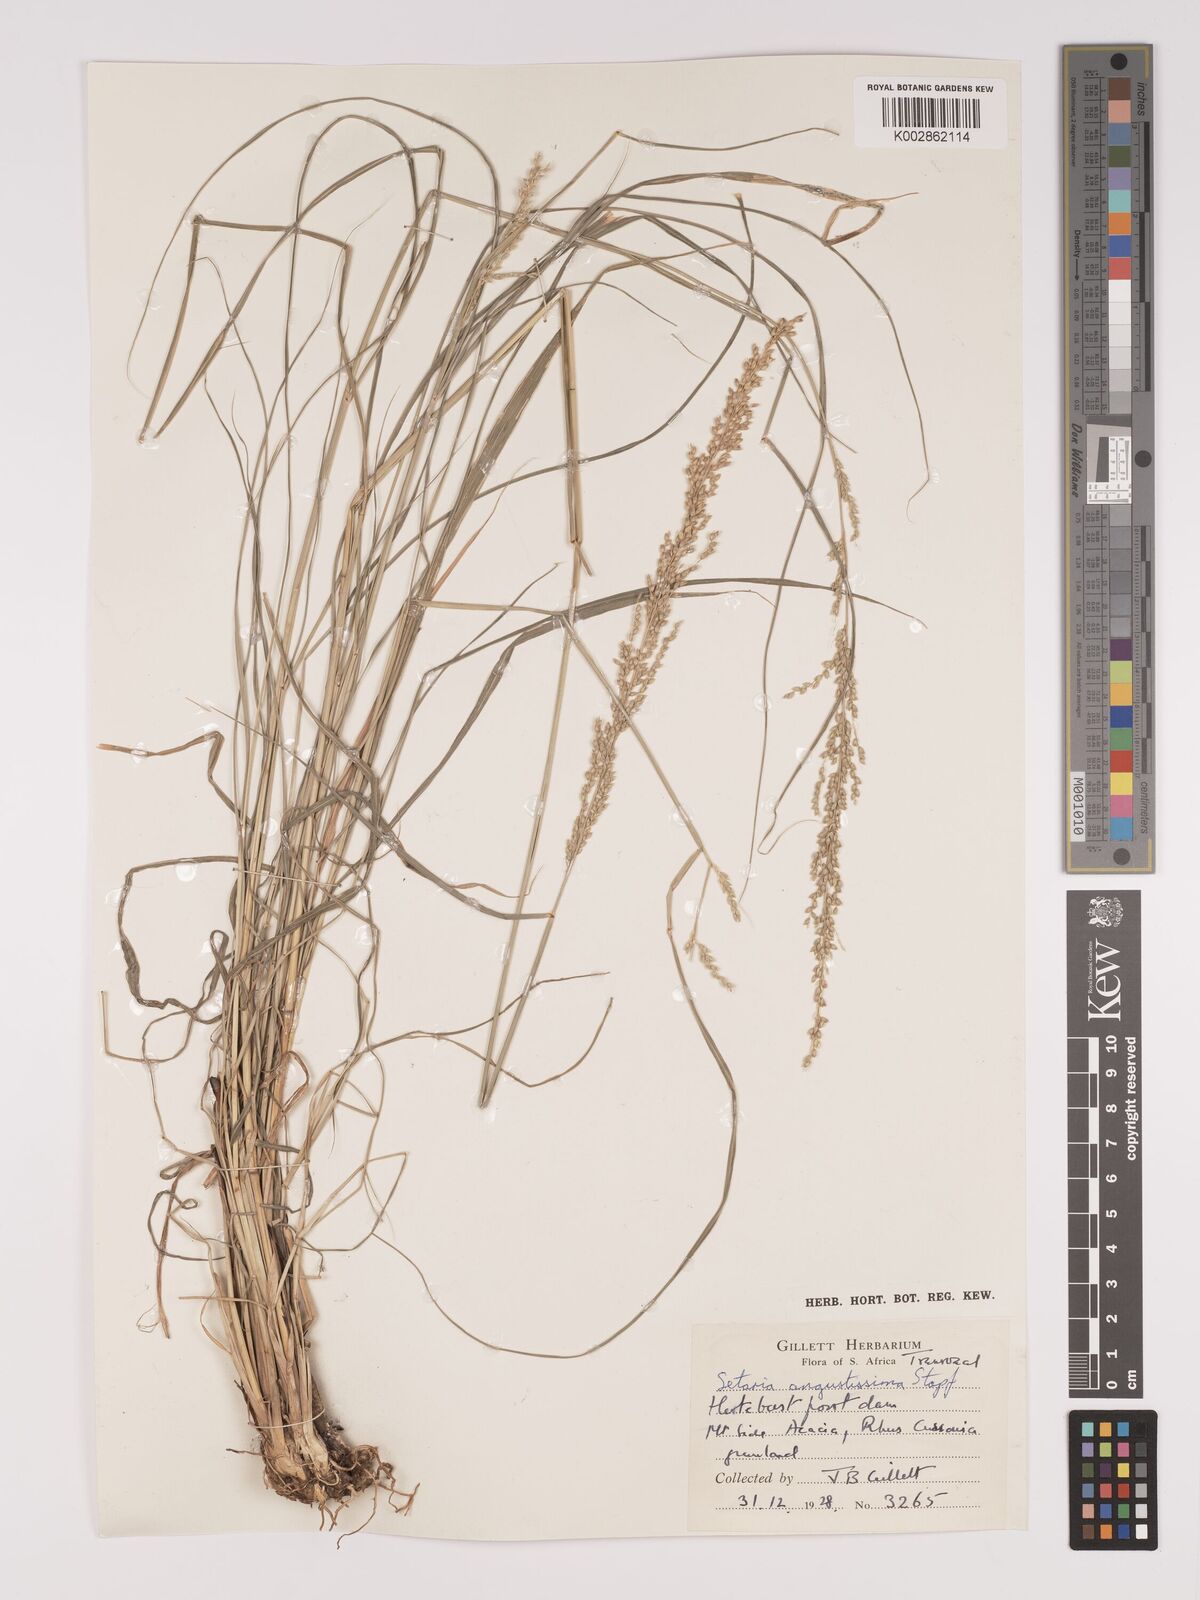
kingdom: Plantae
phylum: Tracheophyta
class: Liliopsida
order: Poales
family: Poaceae
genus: Setaria
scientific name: Setaria lindenbergiana
